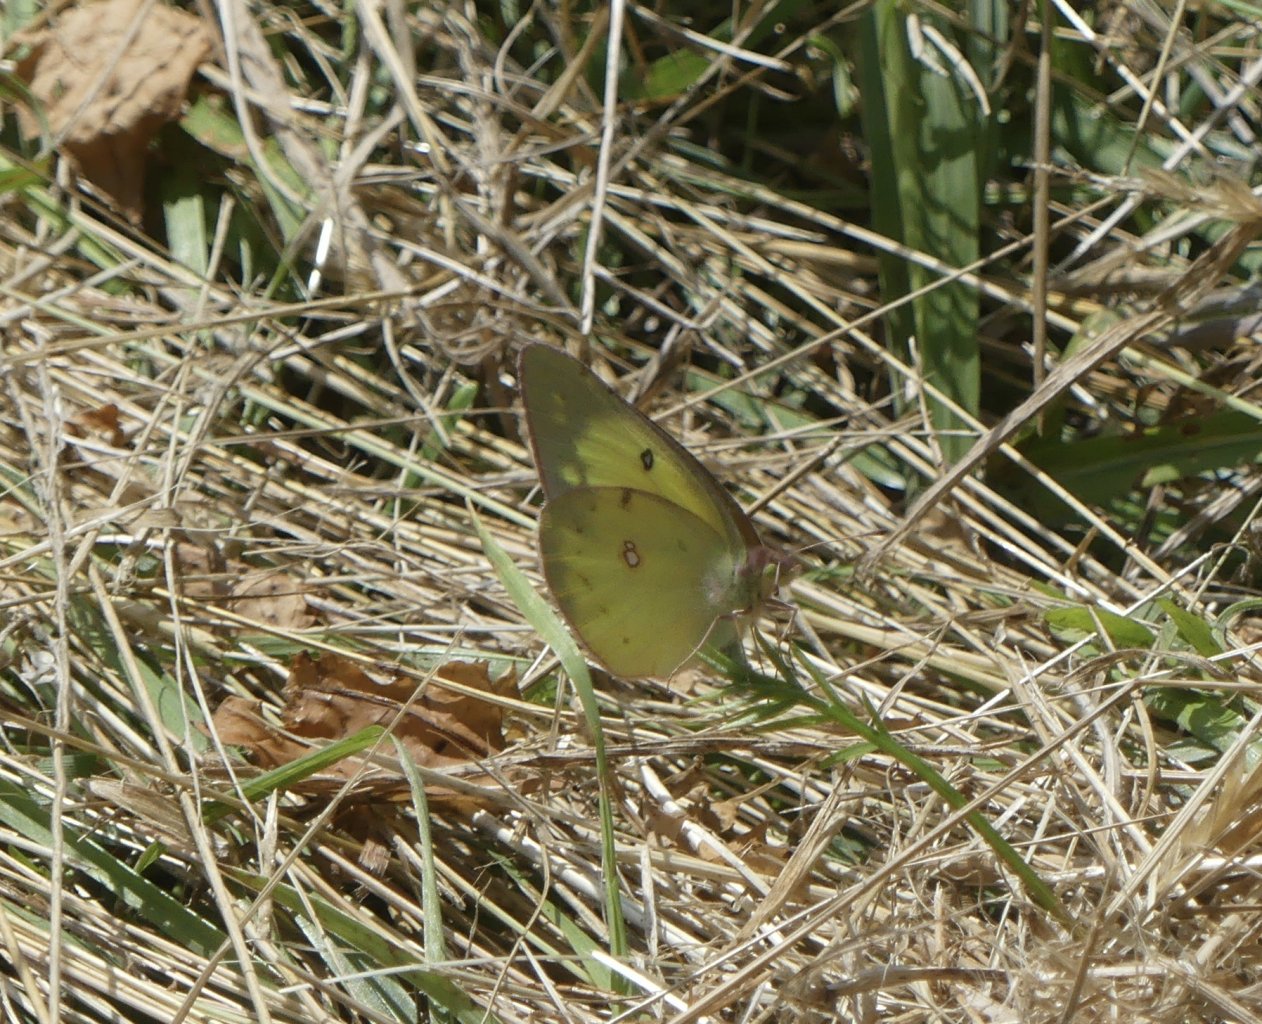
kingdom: Animalia
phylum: Arthropoda
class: Insecta
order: Lepidoptera
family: Pieridae
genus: Colias
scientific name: Colias philodice
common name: Clouded Sulphur
